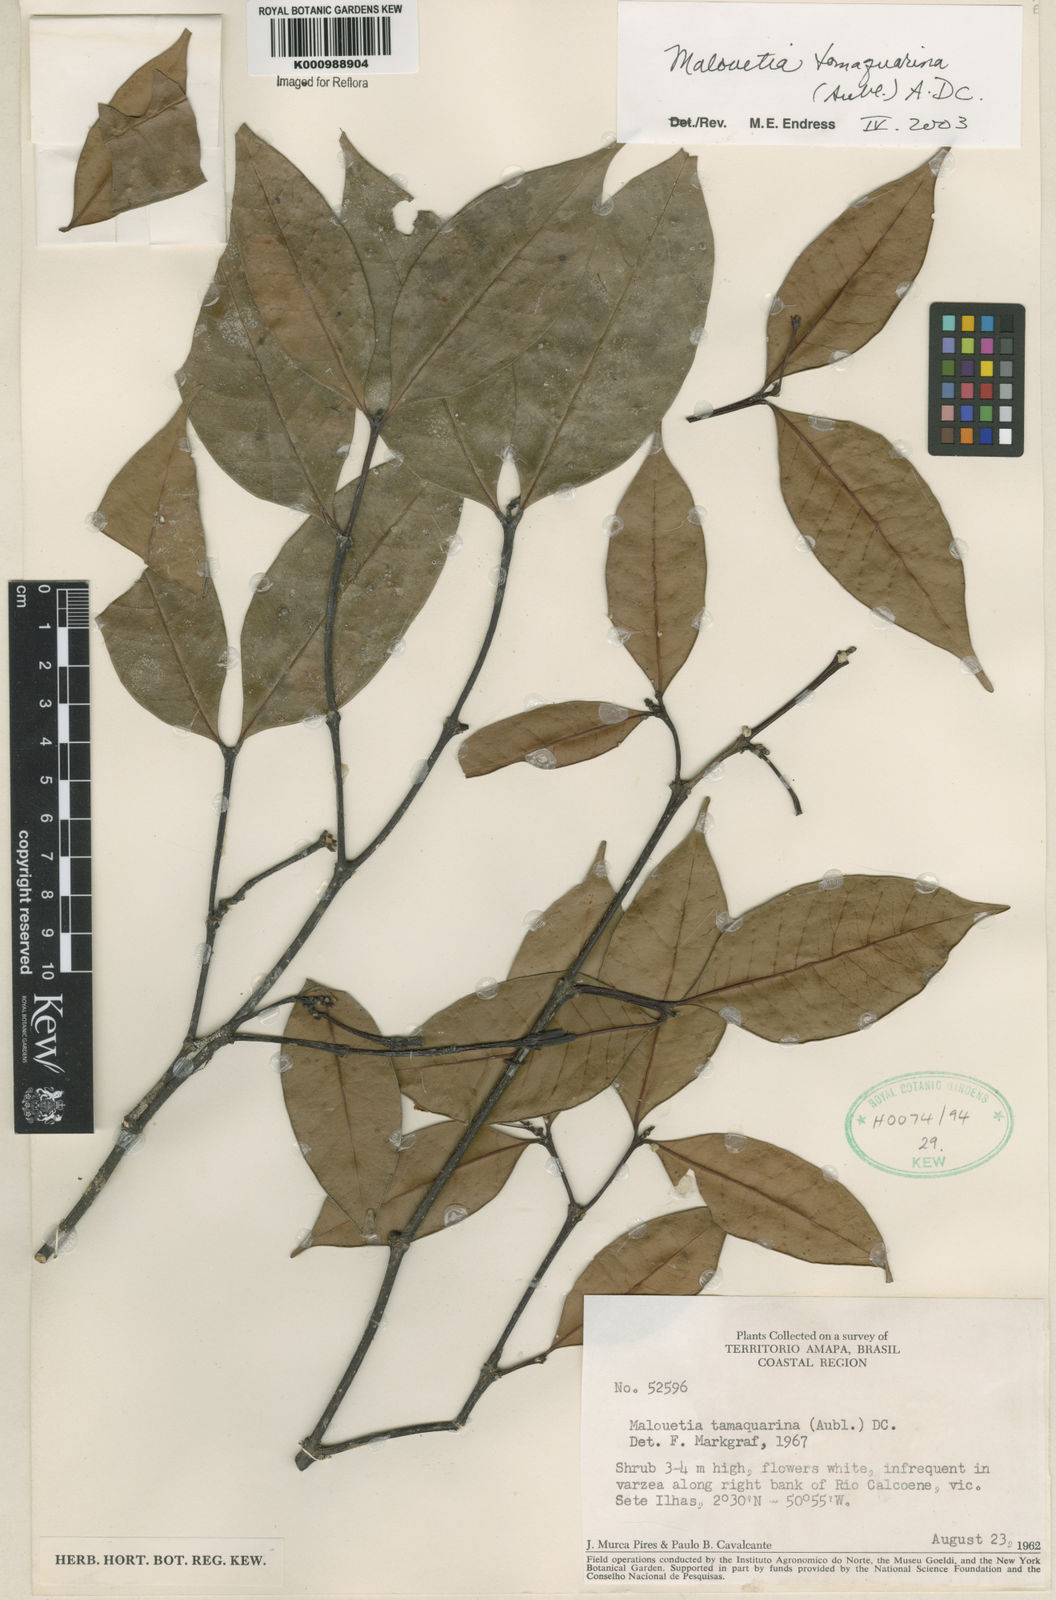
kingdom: Plantae
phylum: Tracheophyta
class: Magnoliopsida
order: Gentianales
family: Apocynaceae
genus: Malouetia
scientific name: Malouetia tamaquarina
